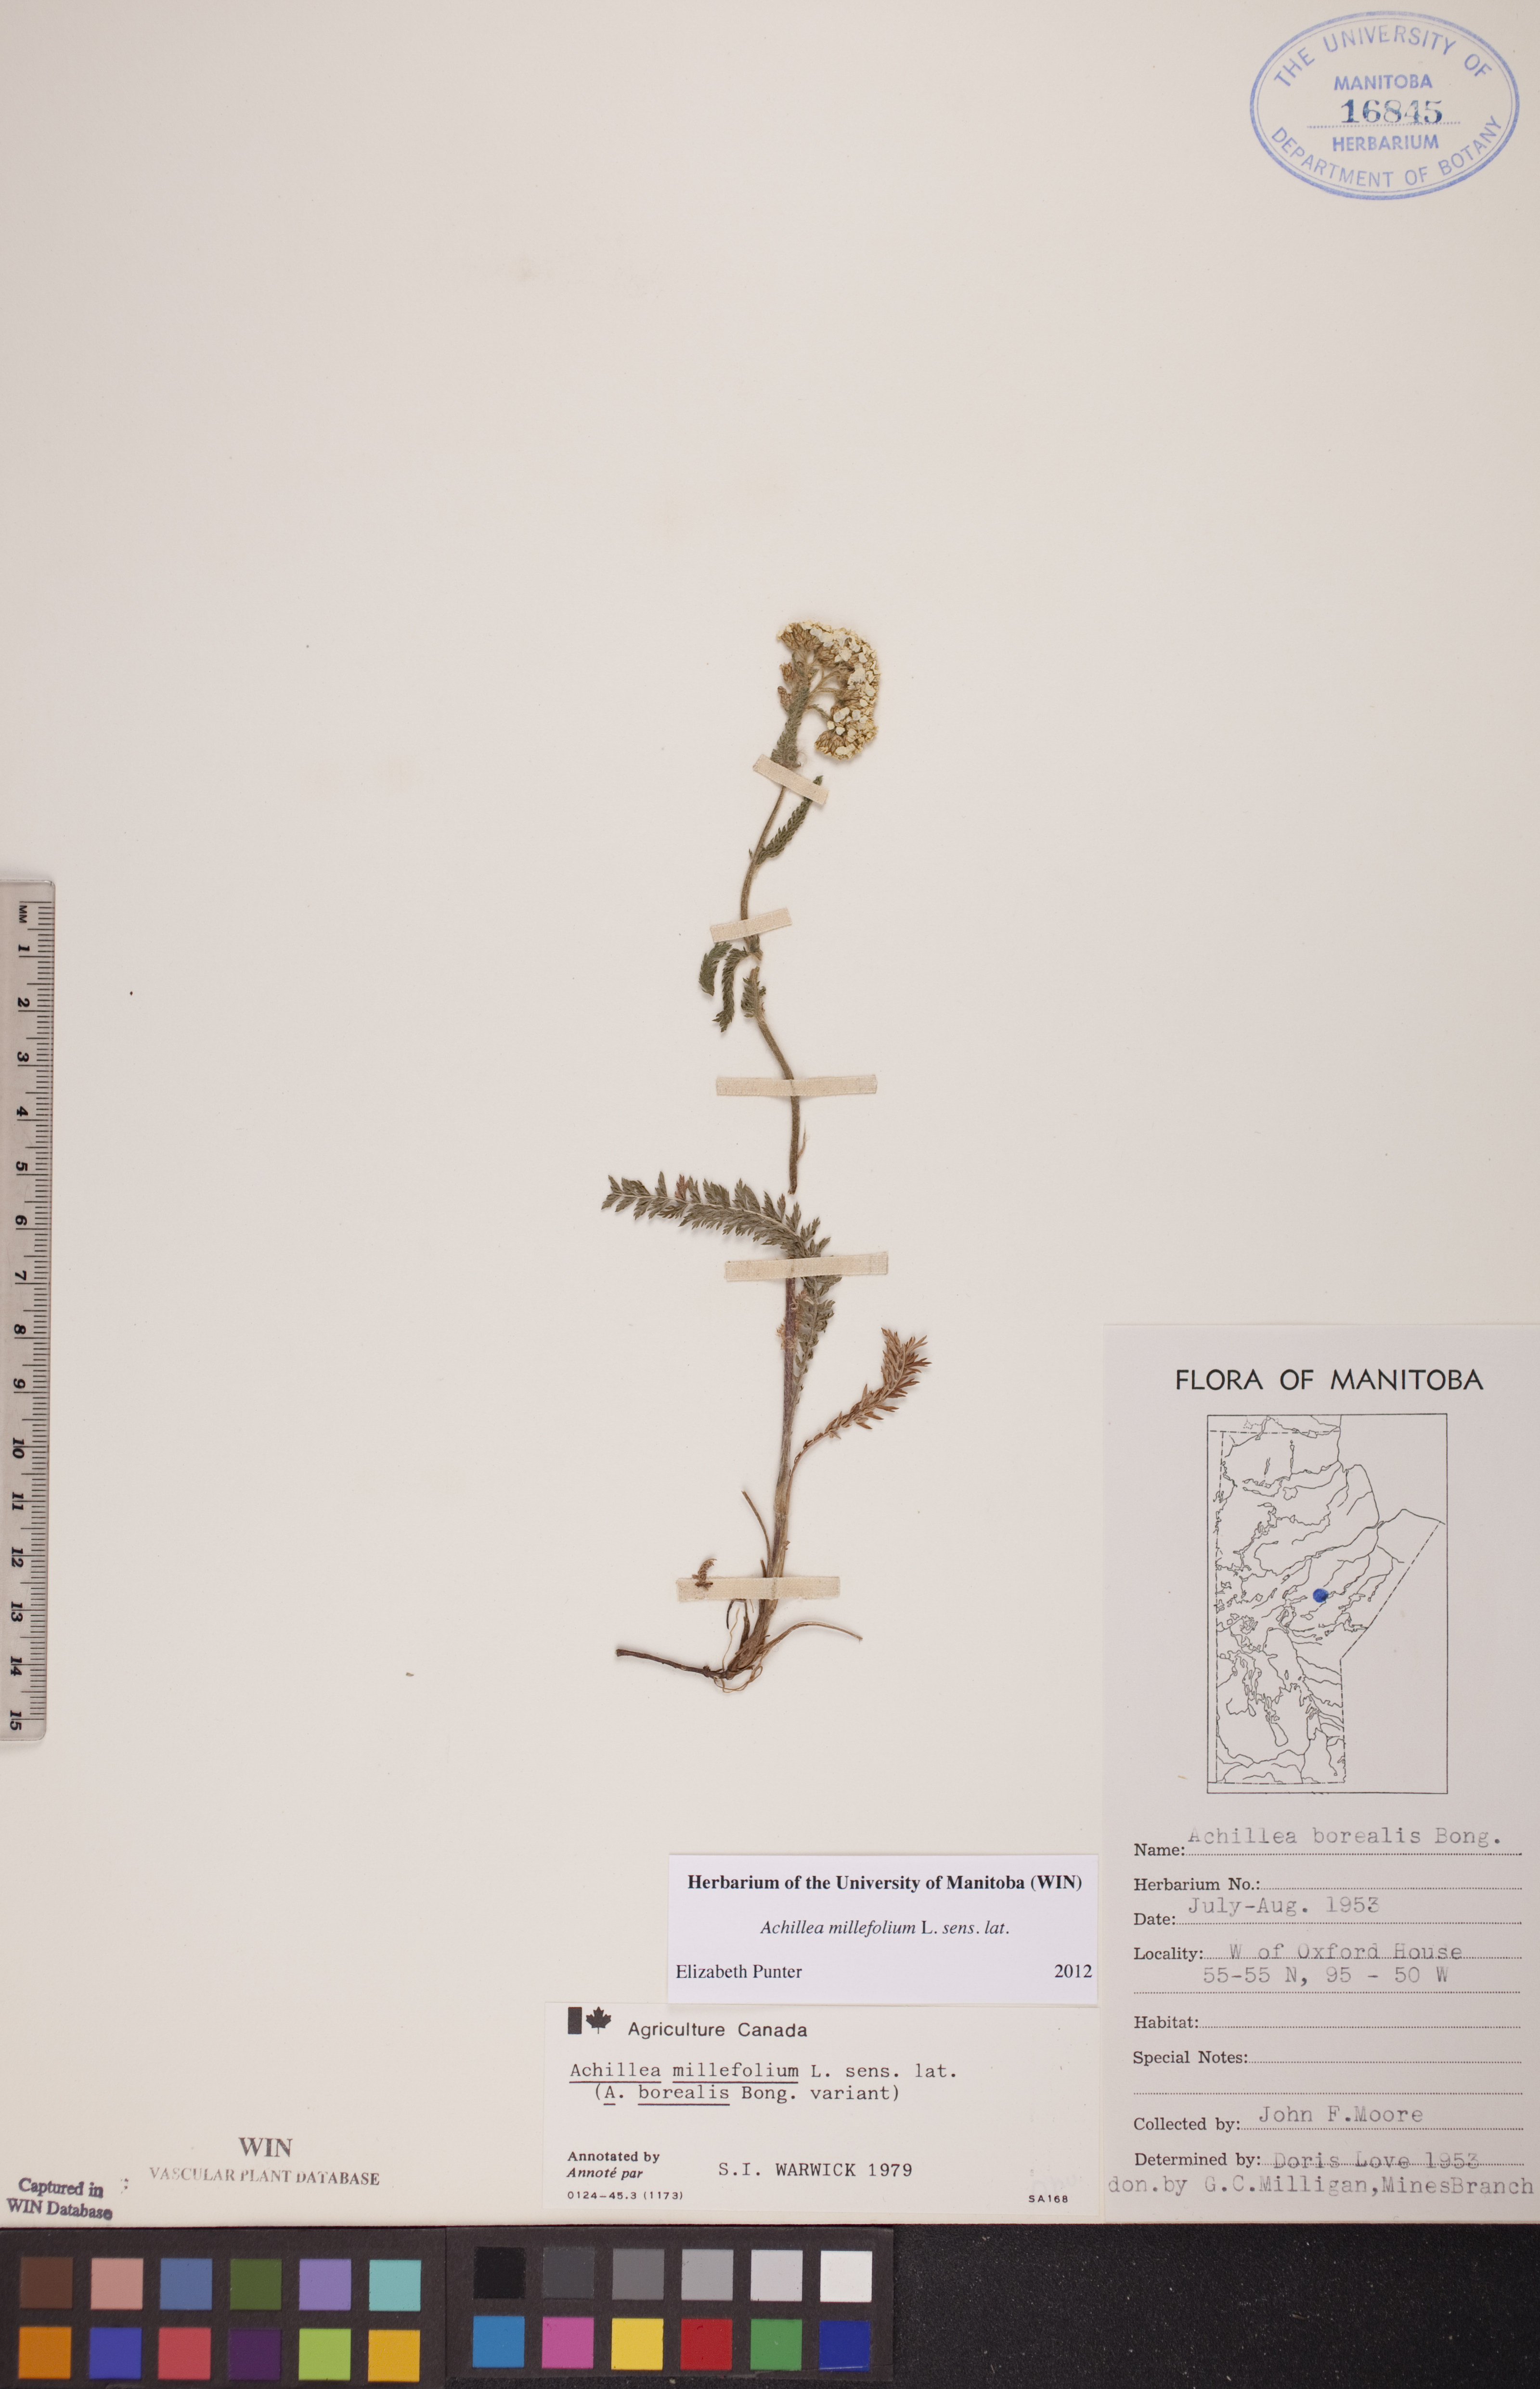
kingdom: Plantae
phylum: Tracheophyta
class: Magnoliopsida
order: Asterales
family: Asteraceae
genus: Achillea
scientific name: Achillea millefolium
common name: Yarrow
